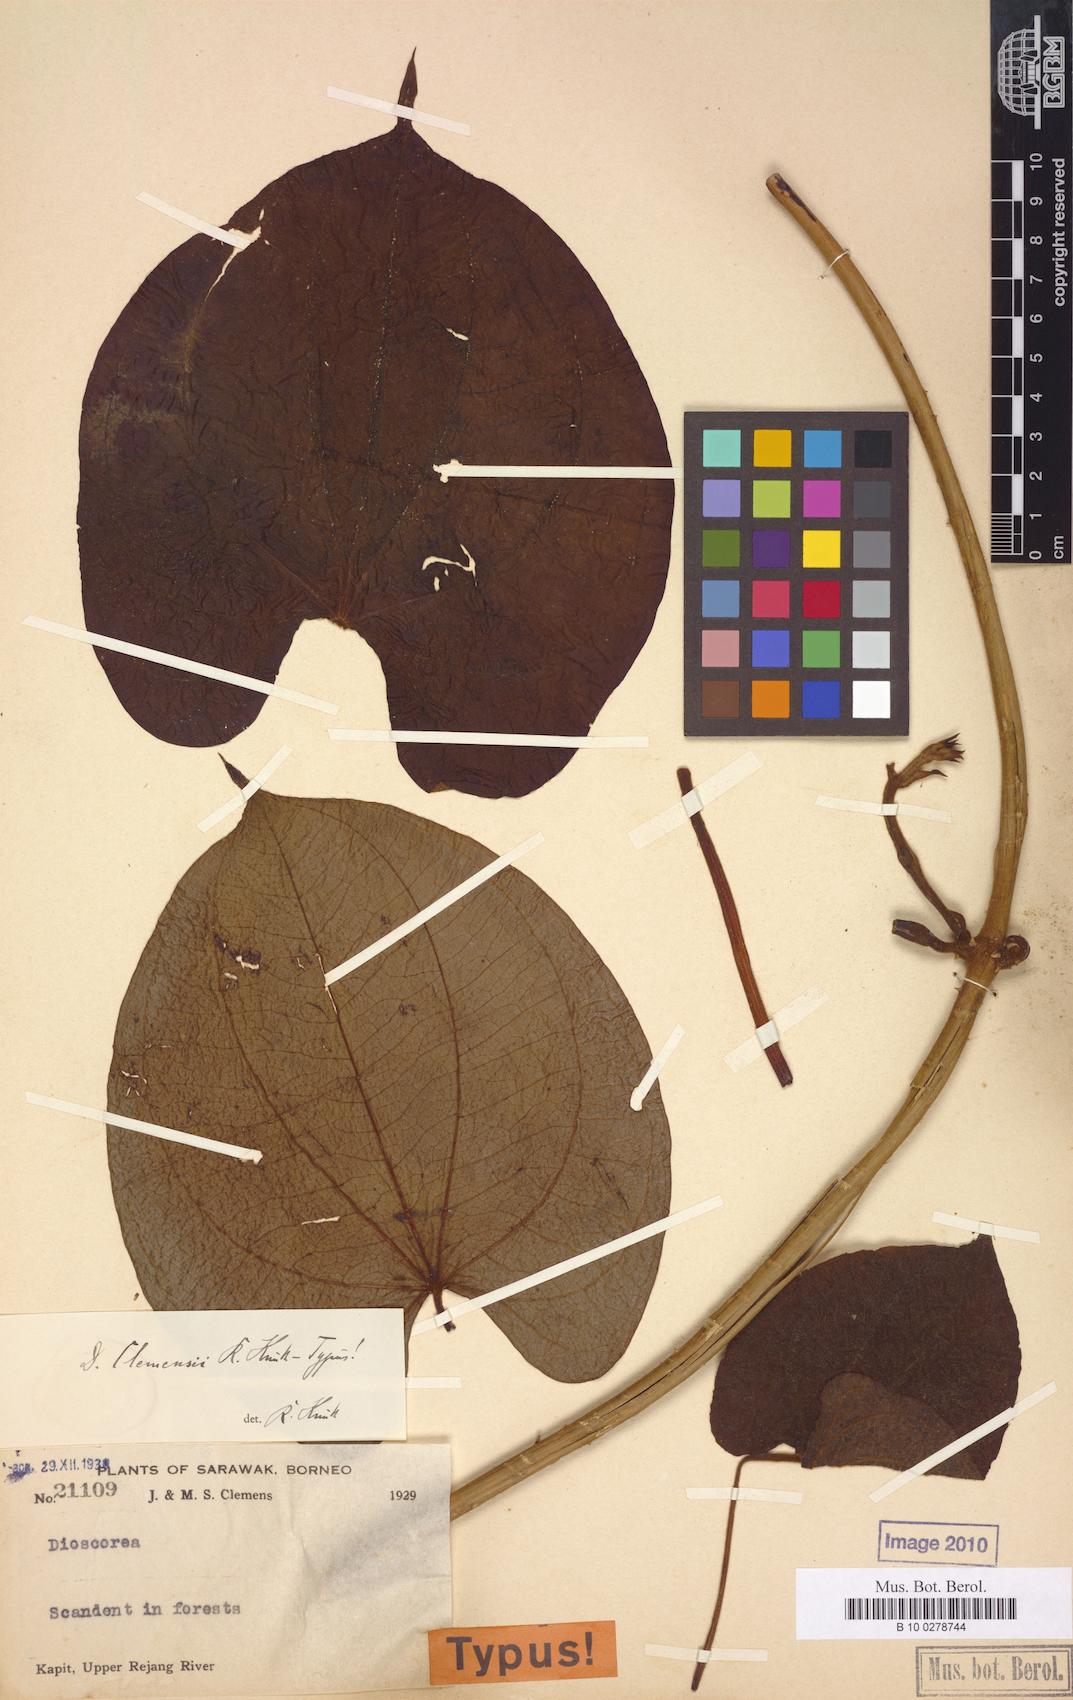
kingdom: Plantae
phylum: Tracheophyta
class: Liliopsida
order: Dioscoreales
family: Dioscoreaceae
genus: Dioscorea
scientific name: Dioscorea clemensii
